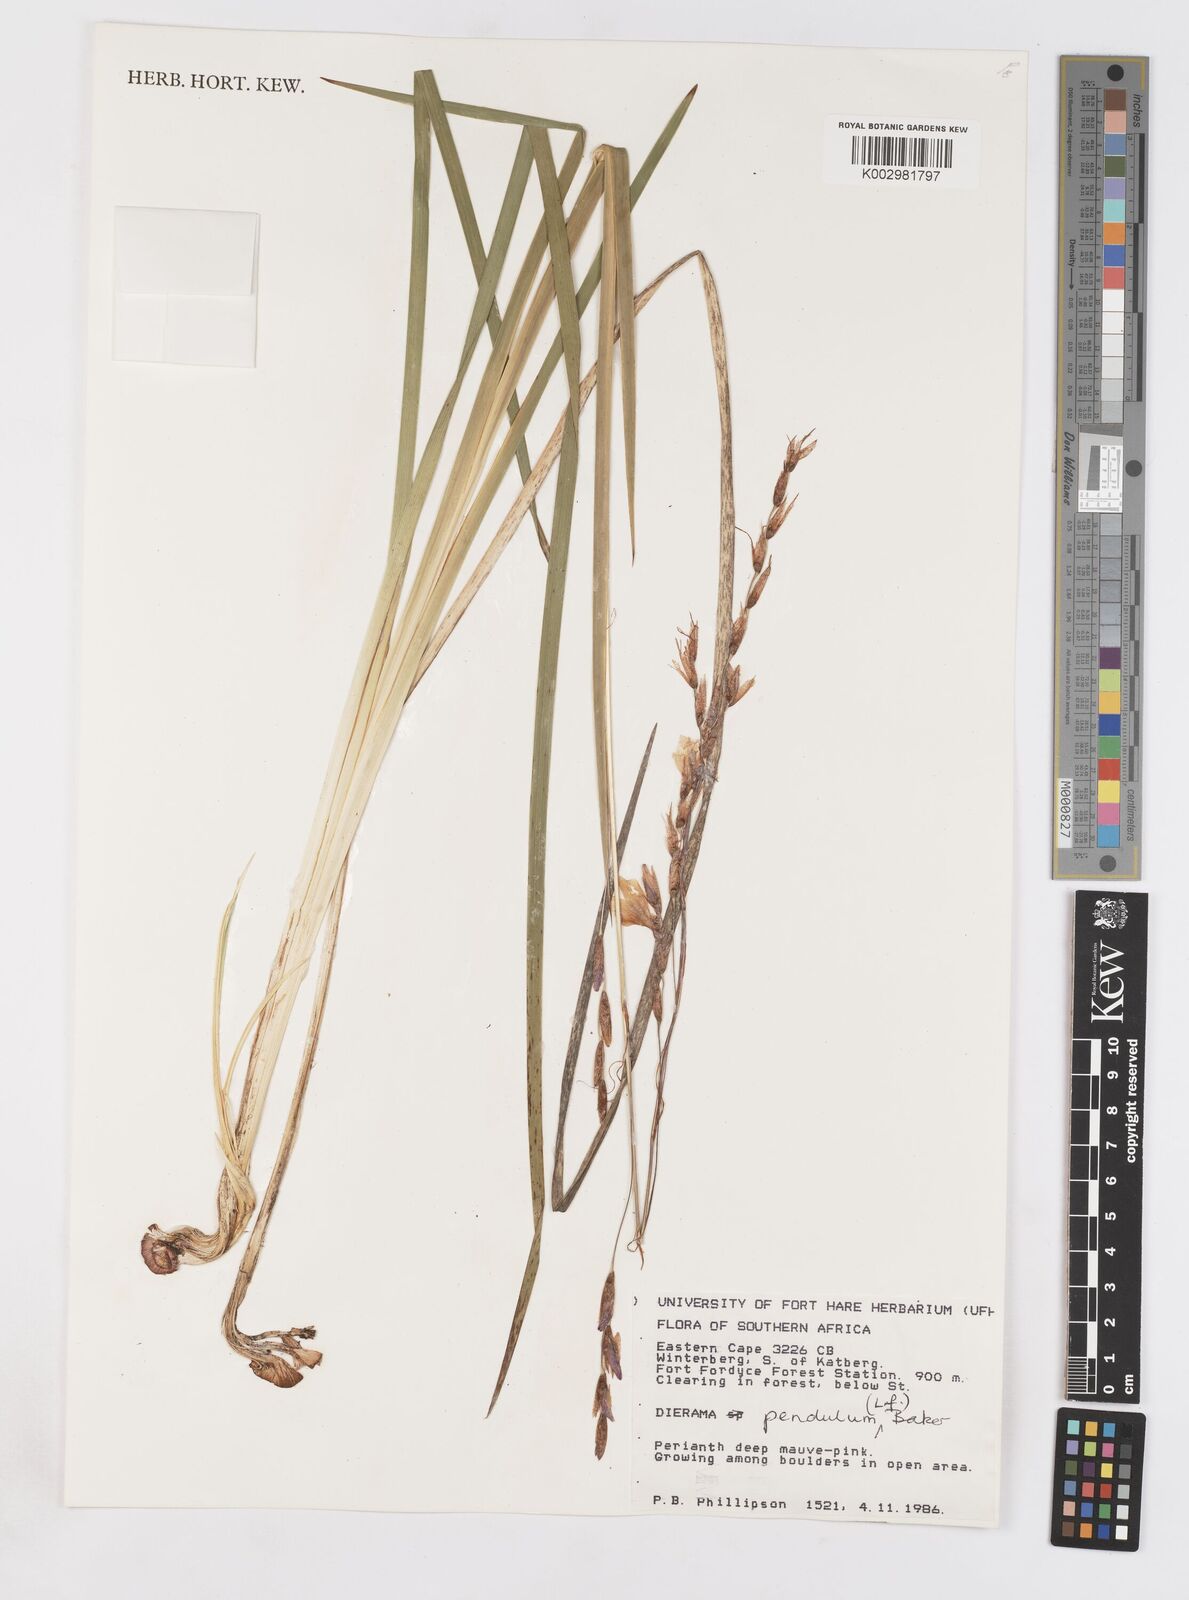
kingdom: Plantae
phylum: Tracheophyta
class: Liliopsida
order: Asparagales
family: Iridaceae
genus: Dierama
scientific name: Dierama pendulum
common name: Grassy-bell
